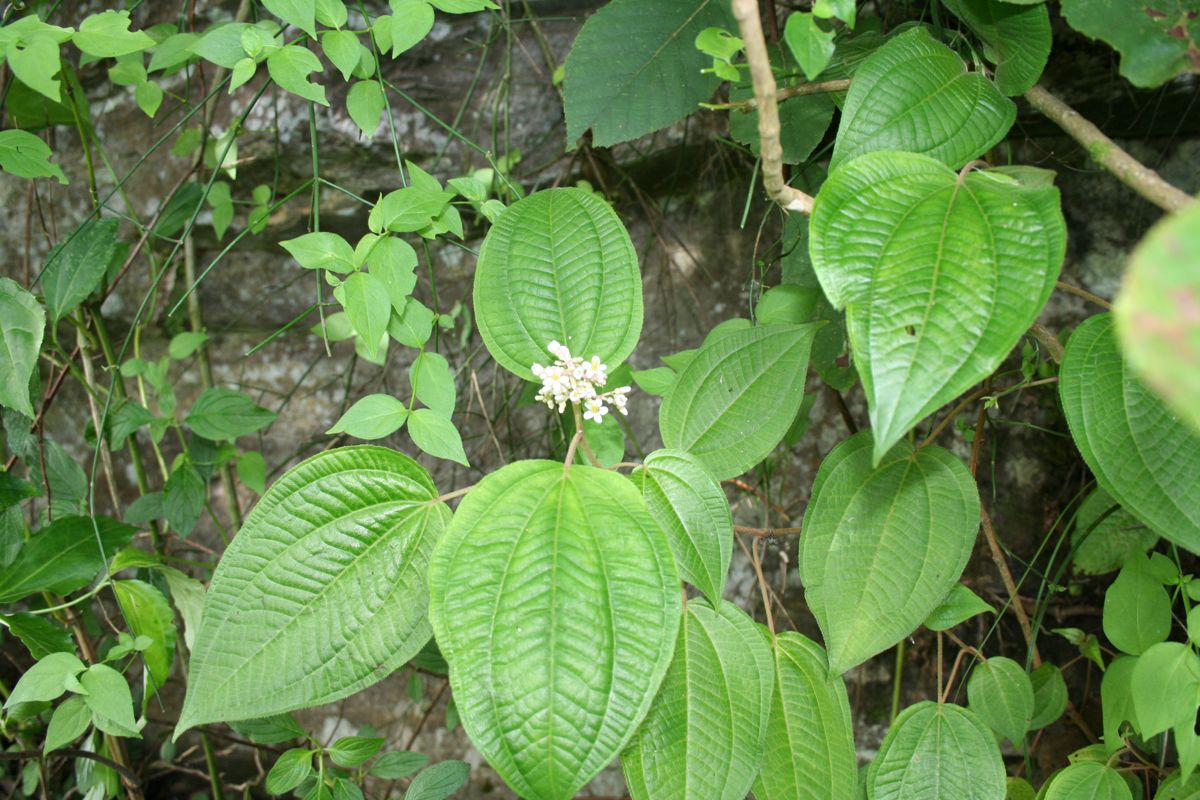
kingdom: Plantae
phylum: Tracheophyta
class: Magnoliopsida
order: Myrtales
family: Melastomataceae
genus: Miconia
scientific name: Miconia guatemalensis
